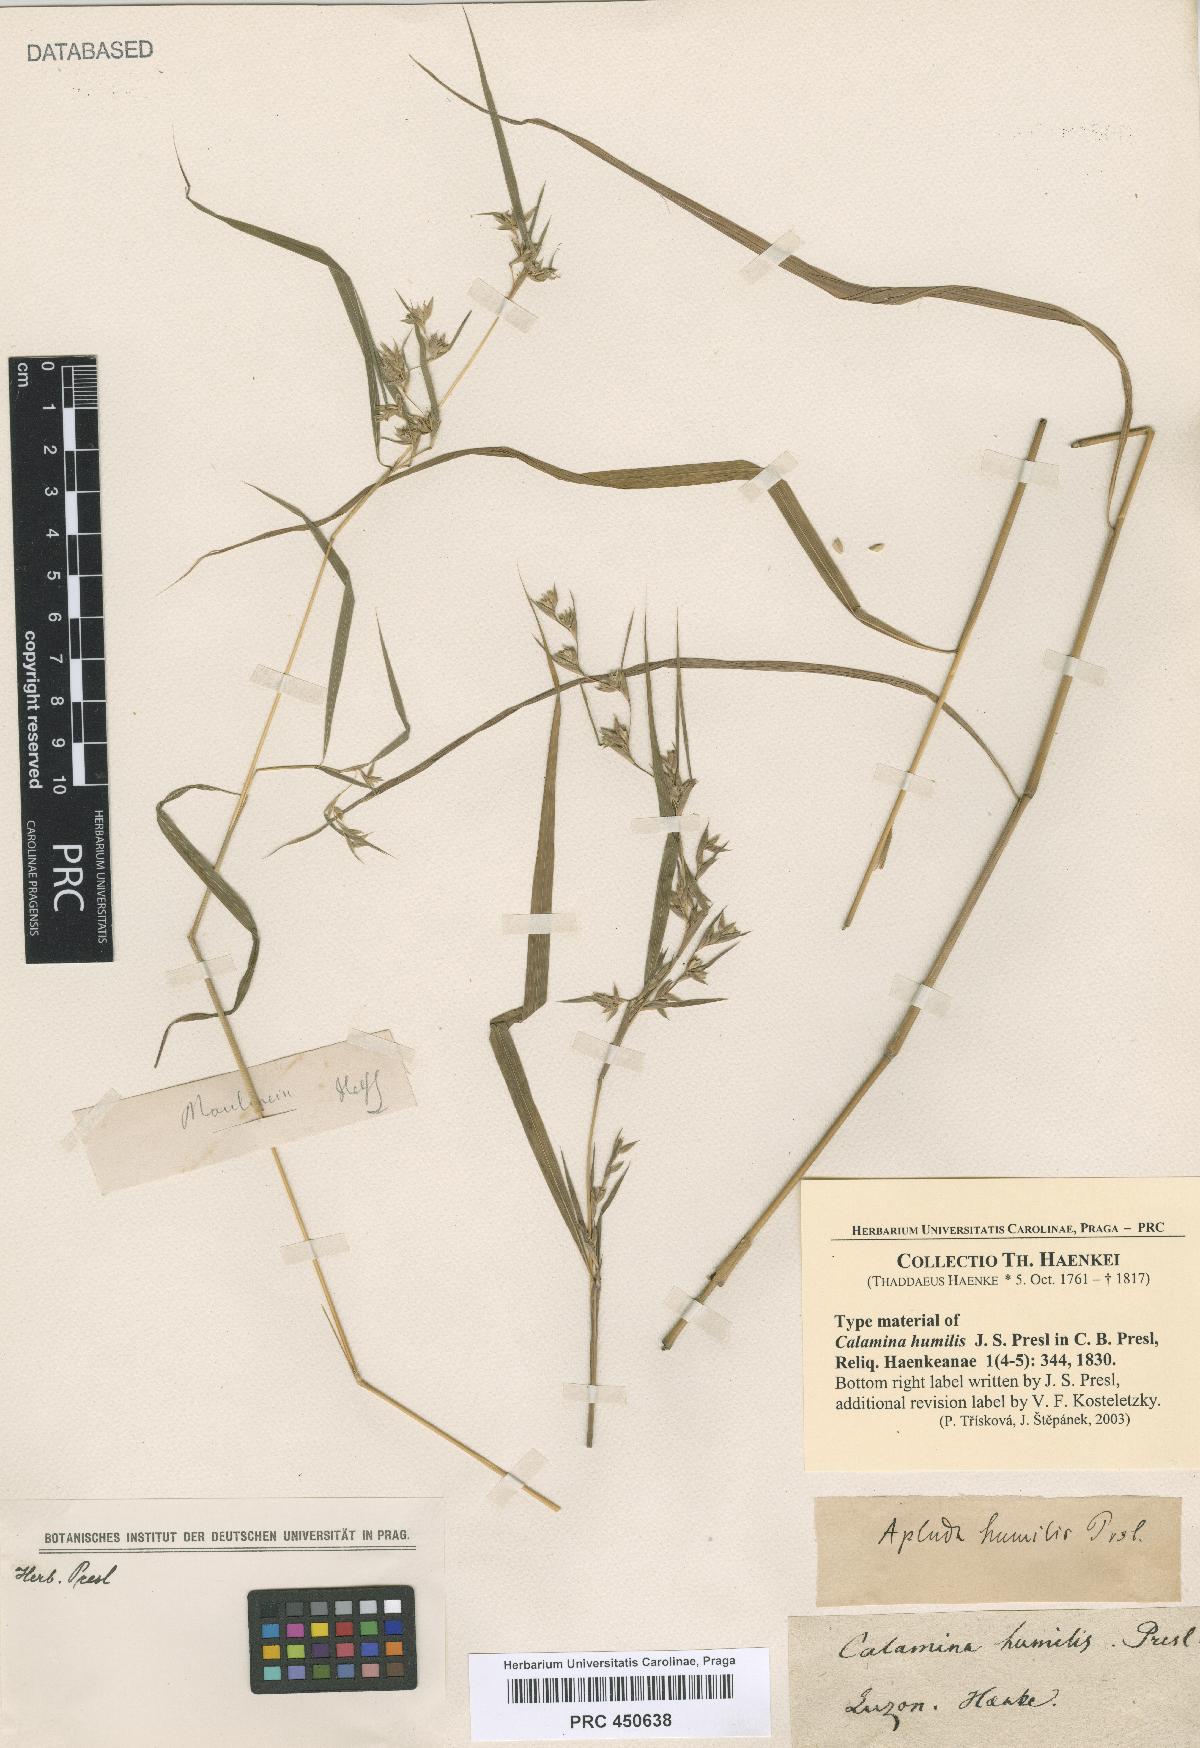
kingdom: Plantae
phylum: Tracheophyta
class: Liliopsida
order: Poales
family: Poaceae
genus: Apluda
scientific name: Apluda mutica
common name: Mauritian grass
